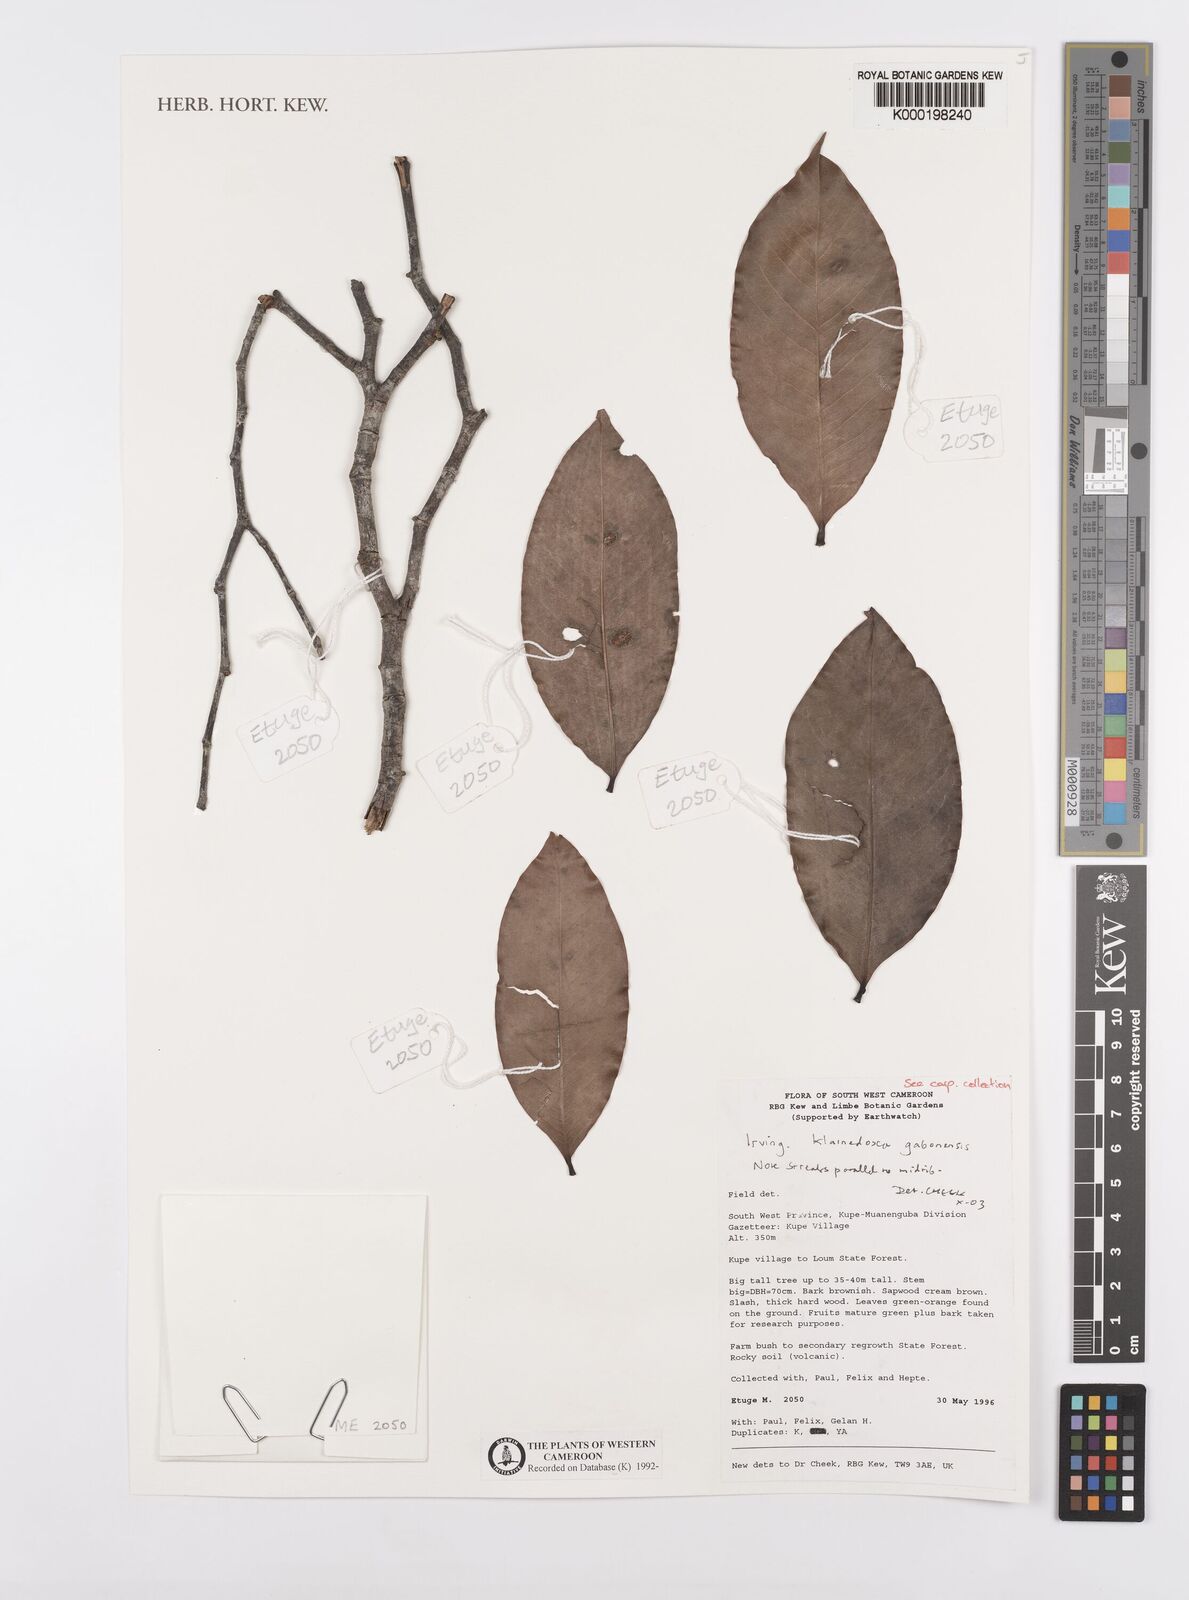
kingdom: Plantae
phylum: Tracheophyta
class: Magnoliopsida
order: Malpighiales
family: Irvingiaceae
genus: Klainedoxa
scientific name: Klainedoxa gabonensis
